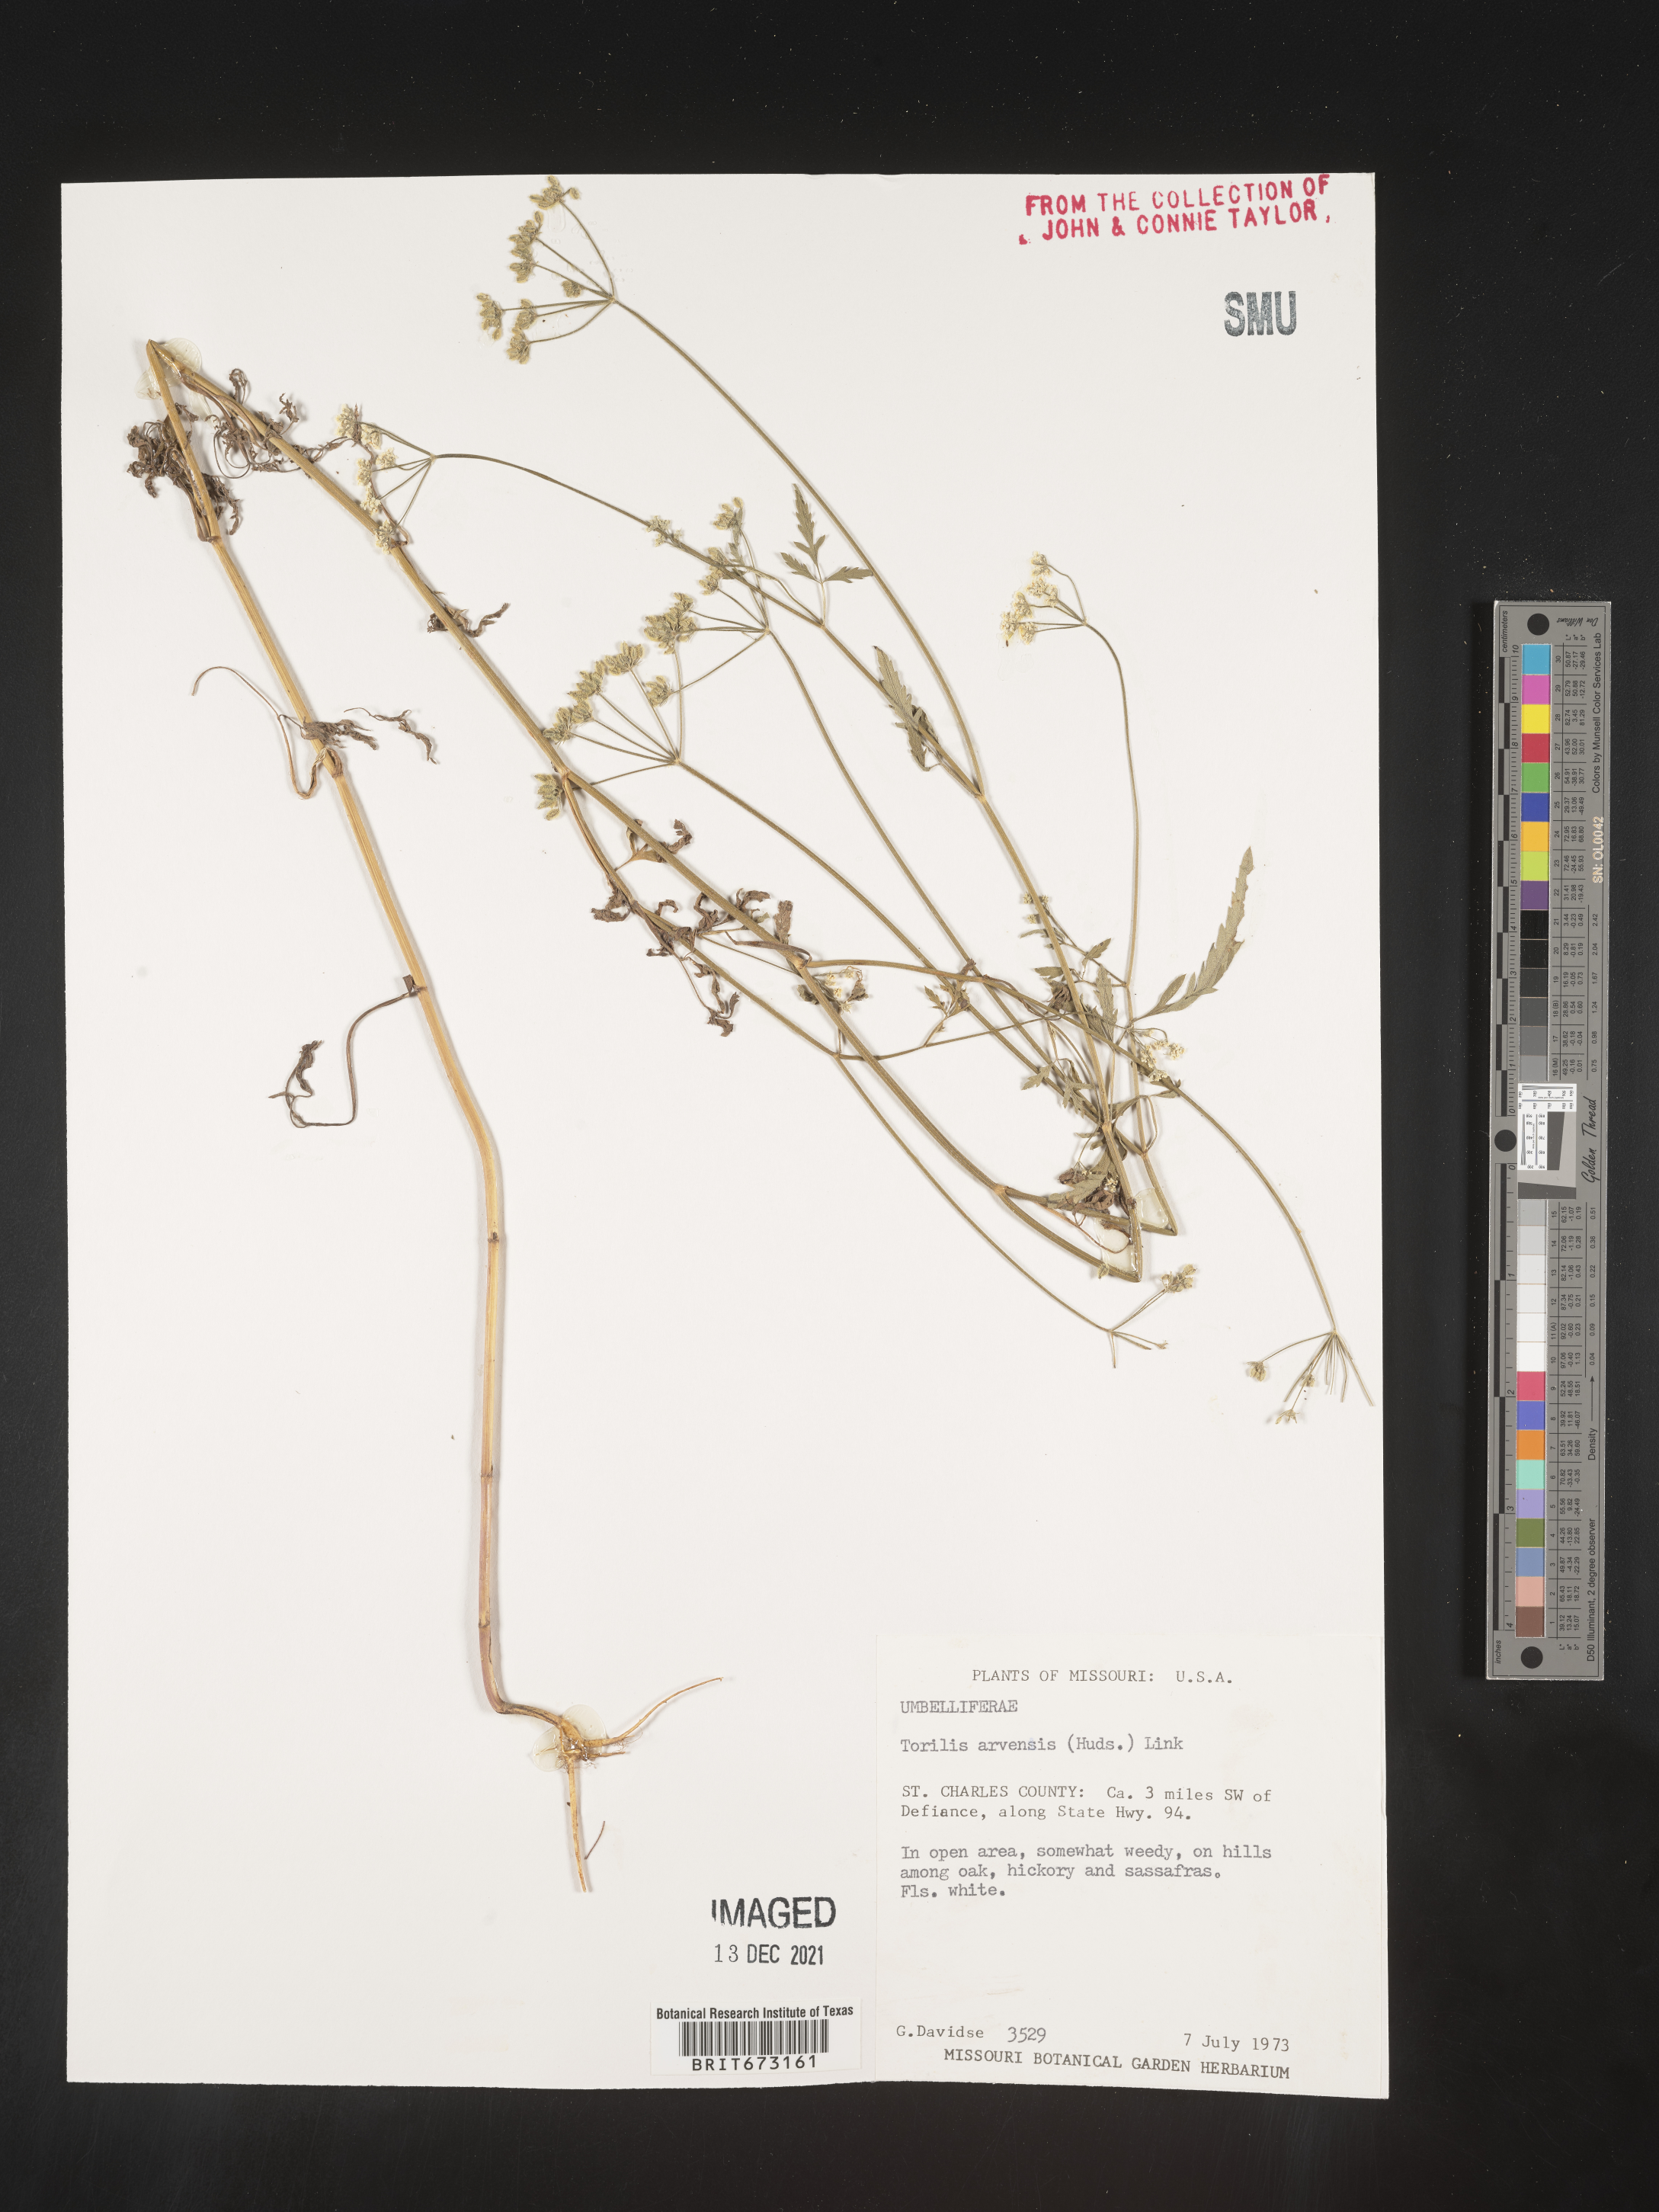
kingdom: Plantae
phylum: Tracheophyta
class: Magnoliopsida
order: Apiales
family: Apiaceae
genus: Torilis
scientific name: Torilis arvensis
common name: Spreading hedge-parsley
